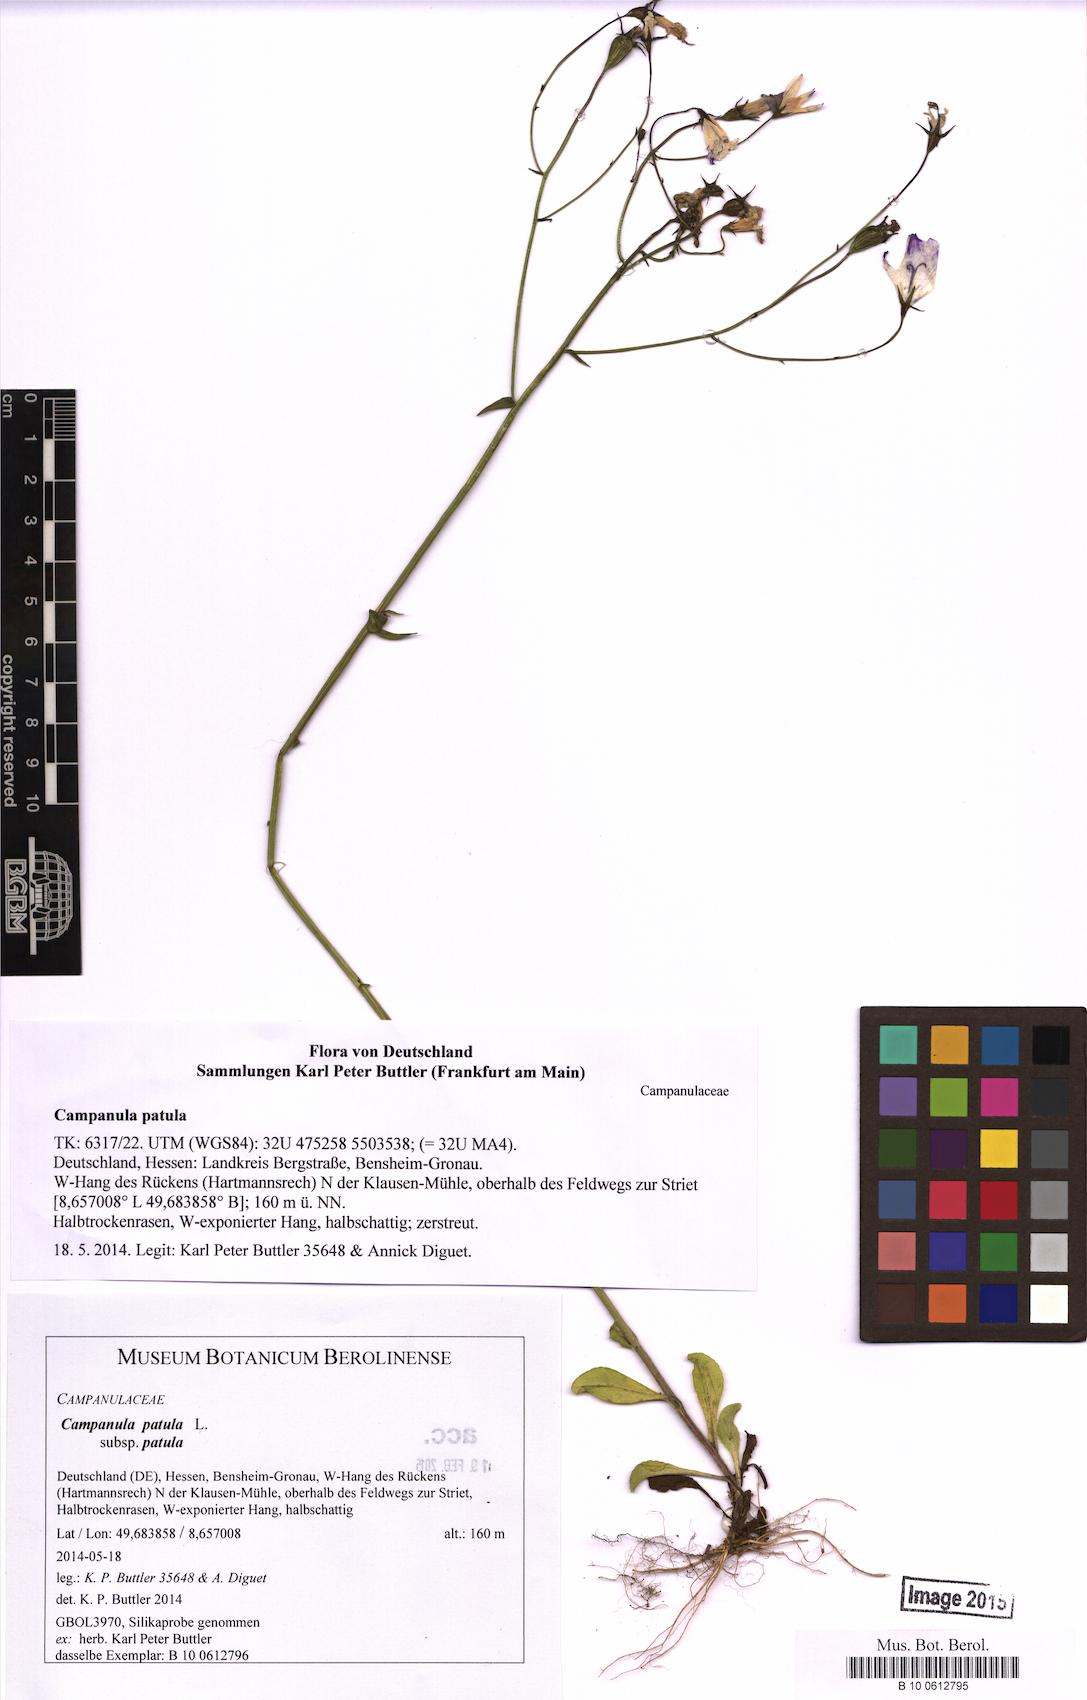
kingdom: Plantae
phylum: Tracheophyta
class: Magnoliopsida
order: Asterales
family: Campanulaceae
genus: Campanula
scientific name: Campanula patula
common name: Spreading bellflower
